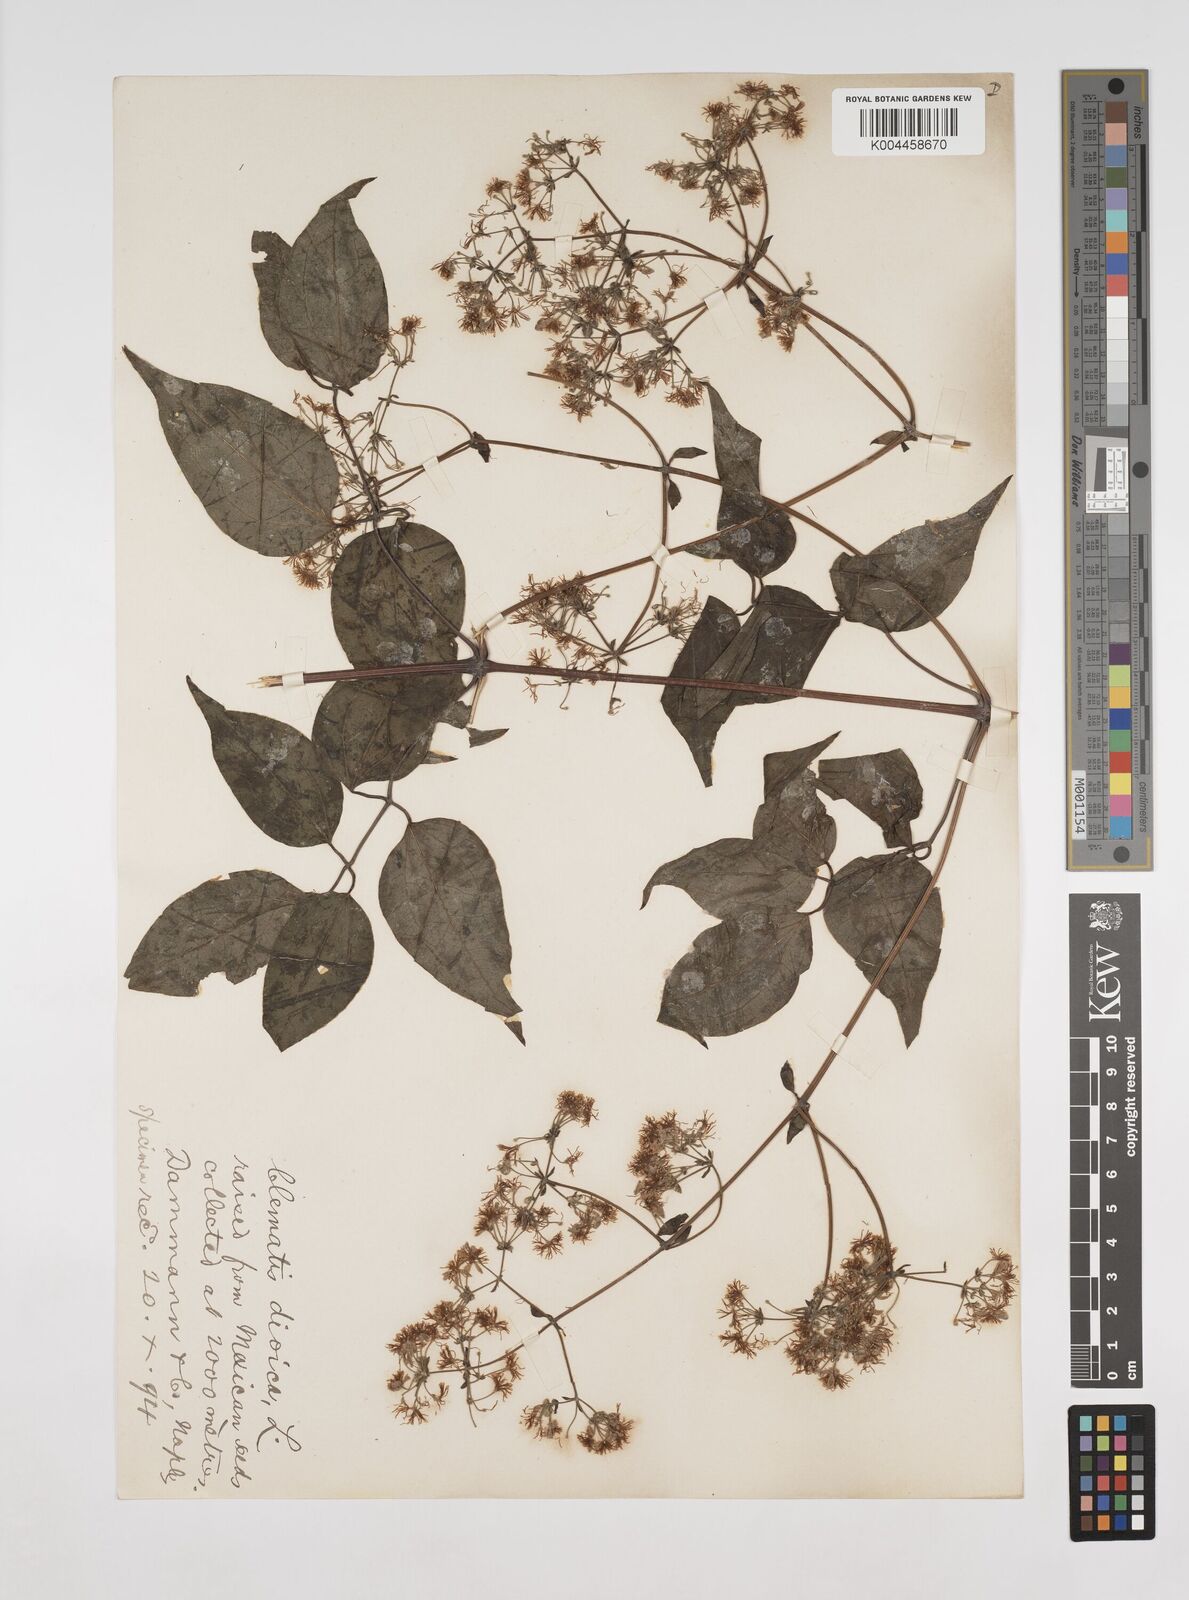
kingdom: Plantae
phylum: Tracheophyta
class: Magnoliopsida
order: Ranunculales
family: Ranunculaceae
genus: Clematis
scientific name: Clematis dioica
